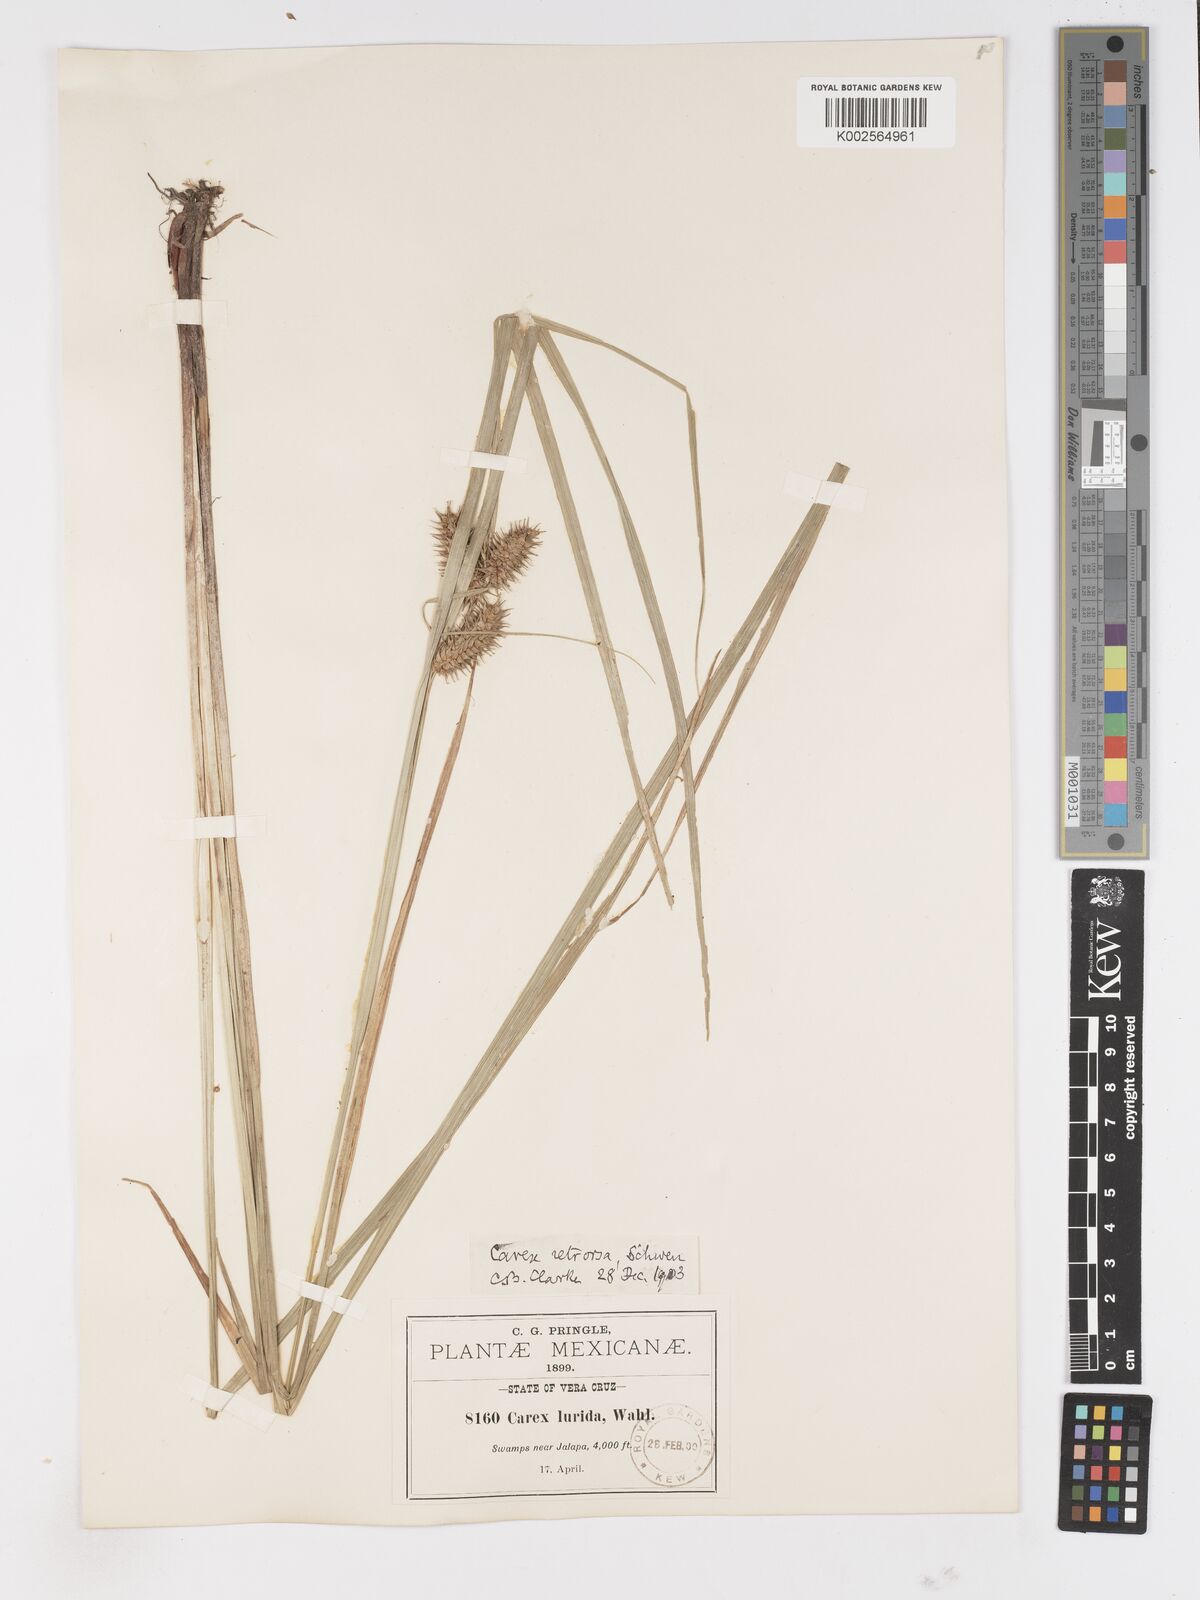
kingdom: Plantae
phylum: Tracheophyta
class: Liliopsida
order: Poales
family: Cyperaceae
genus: Carex
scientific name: Carex lurida
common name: Sallow sedge
